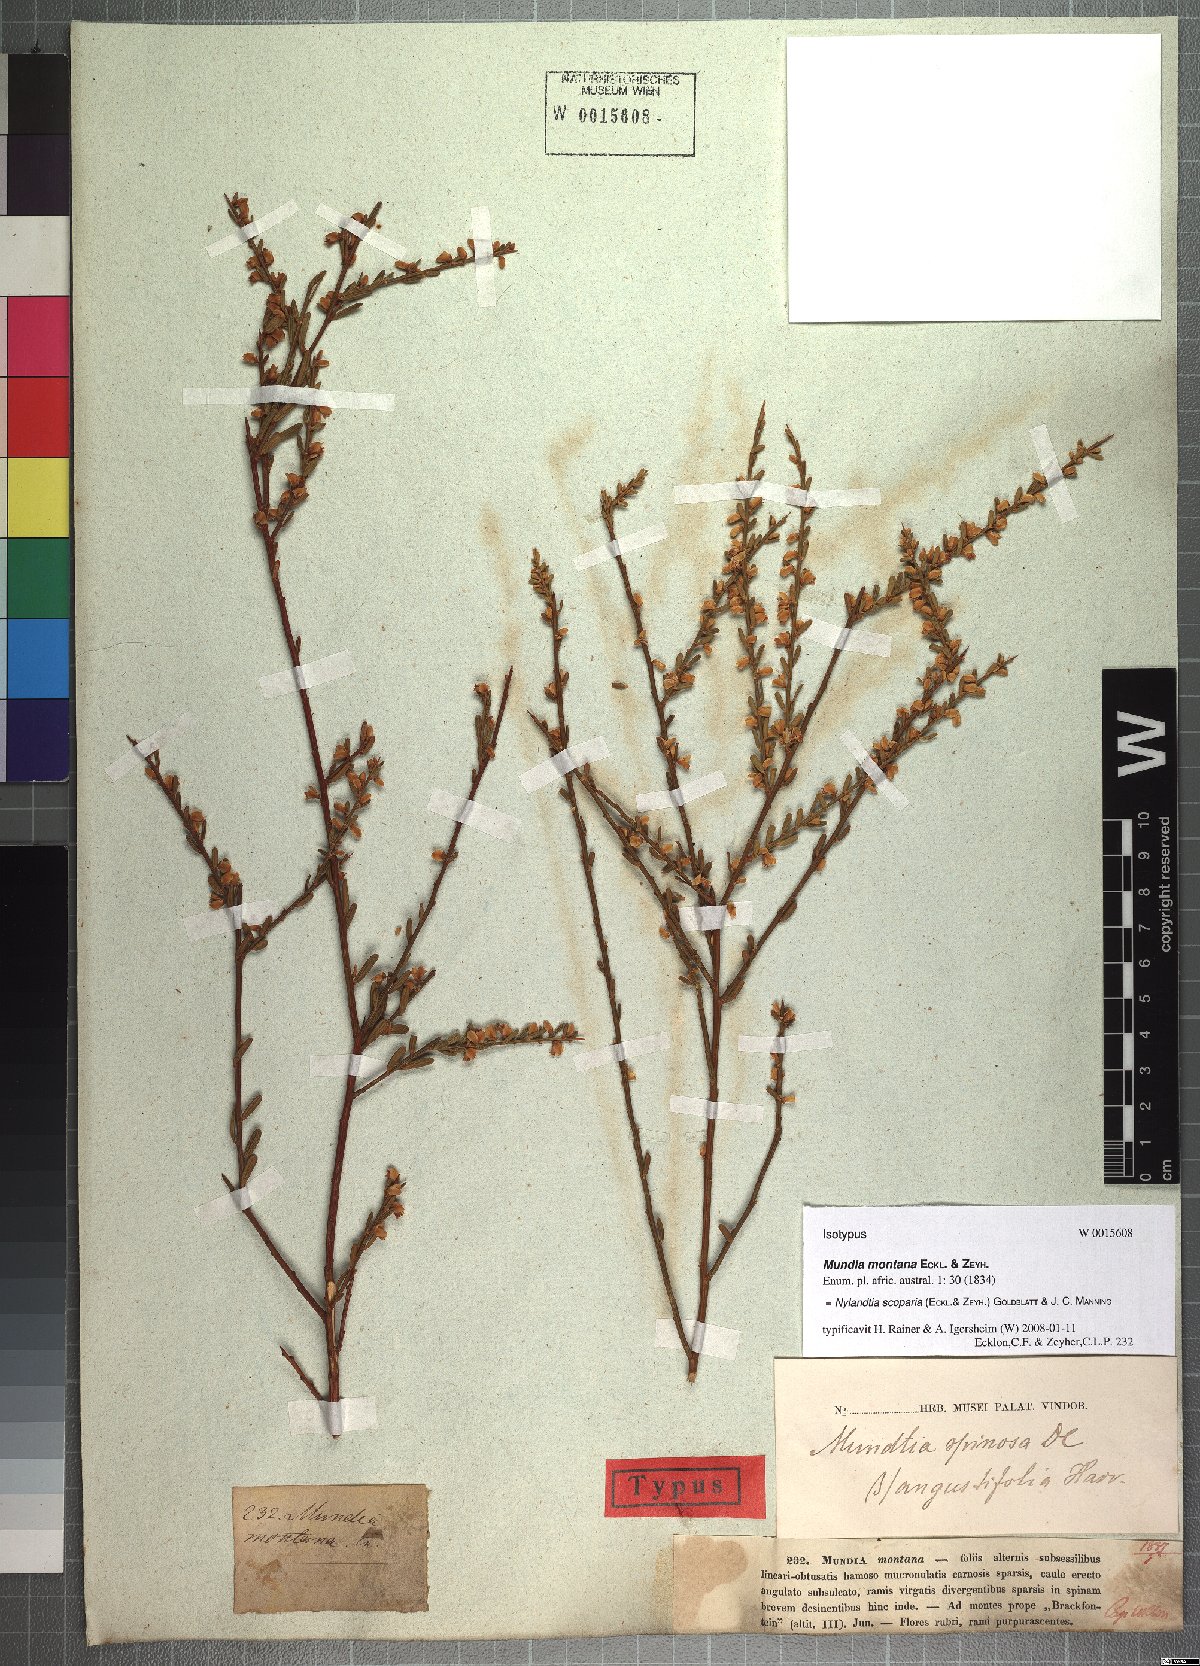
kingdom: Plantae
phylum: Tracheophyta
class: Magnoliopsida
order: Fabales
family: Polygalaceae
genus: Muraltia
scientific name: Muraltia scoparia
